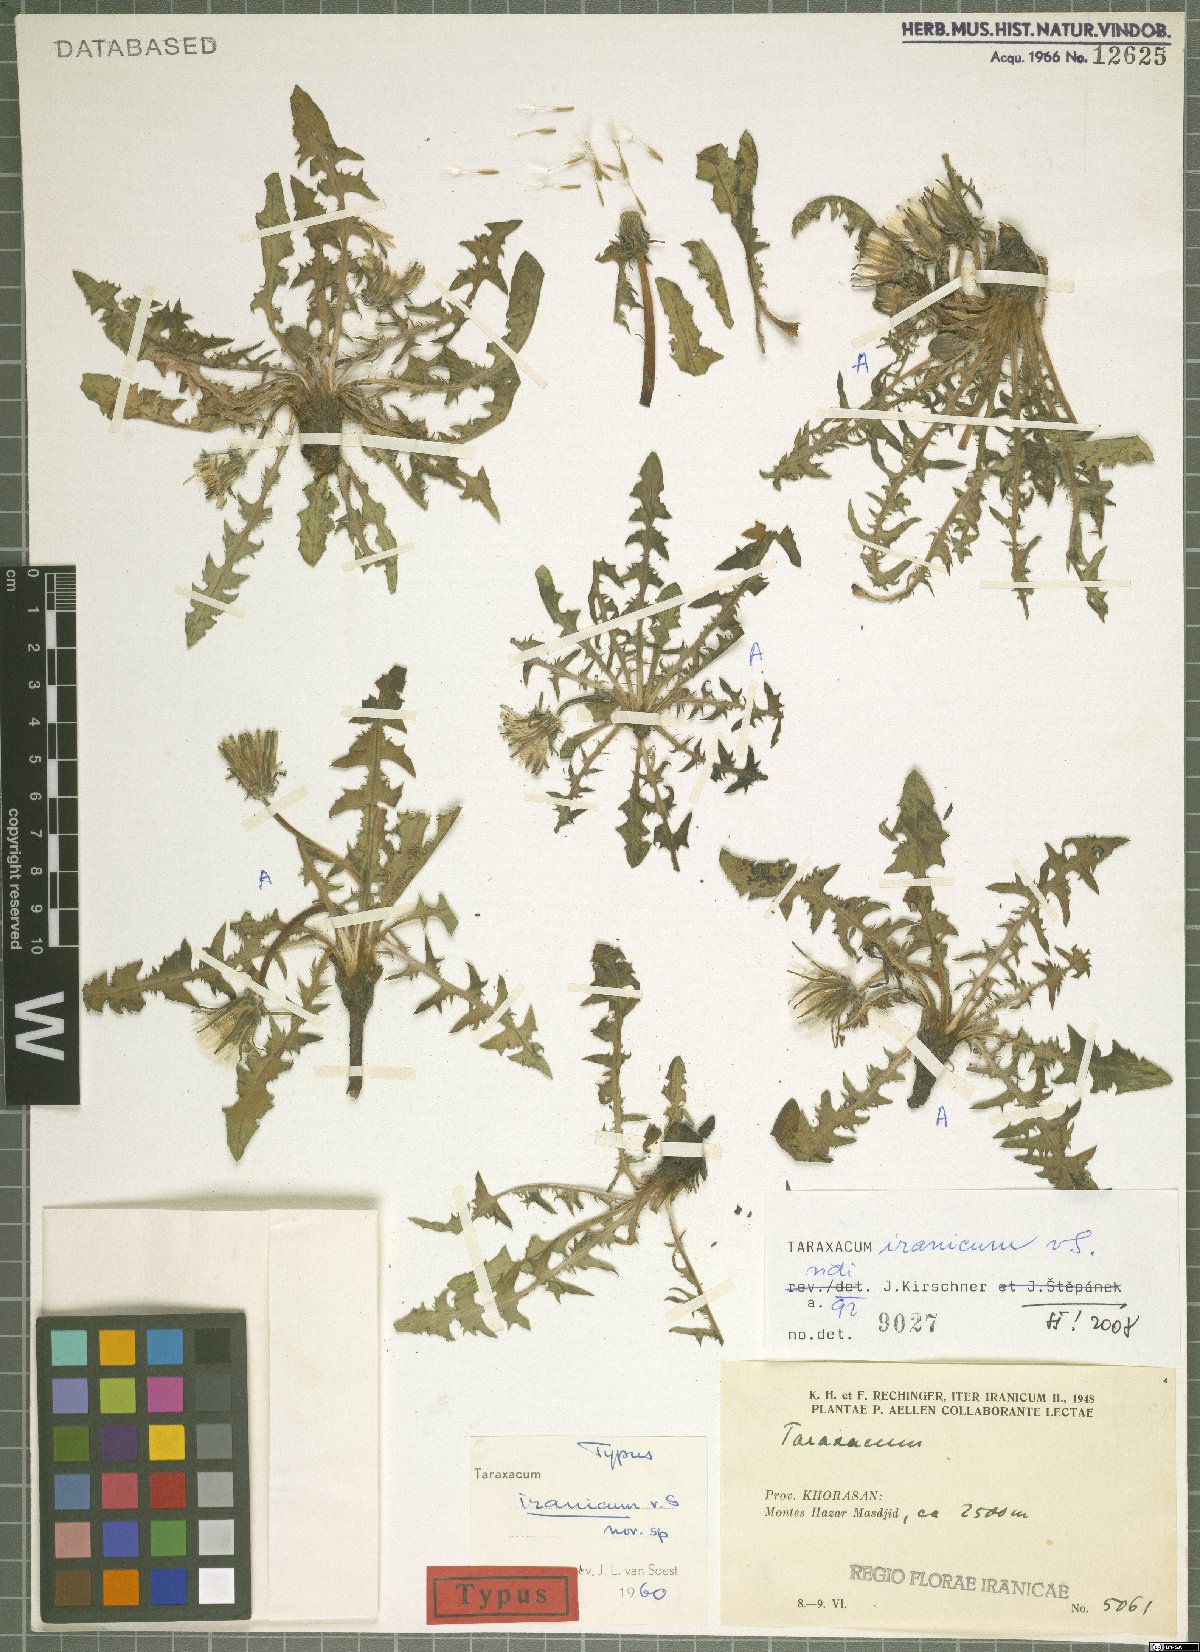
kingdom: Plantae
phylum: Tracheophyta
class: Magnoliopsida
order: Asterales
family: Asteraceae
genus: Taraxacum
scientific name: Taraxacum iranicum
